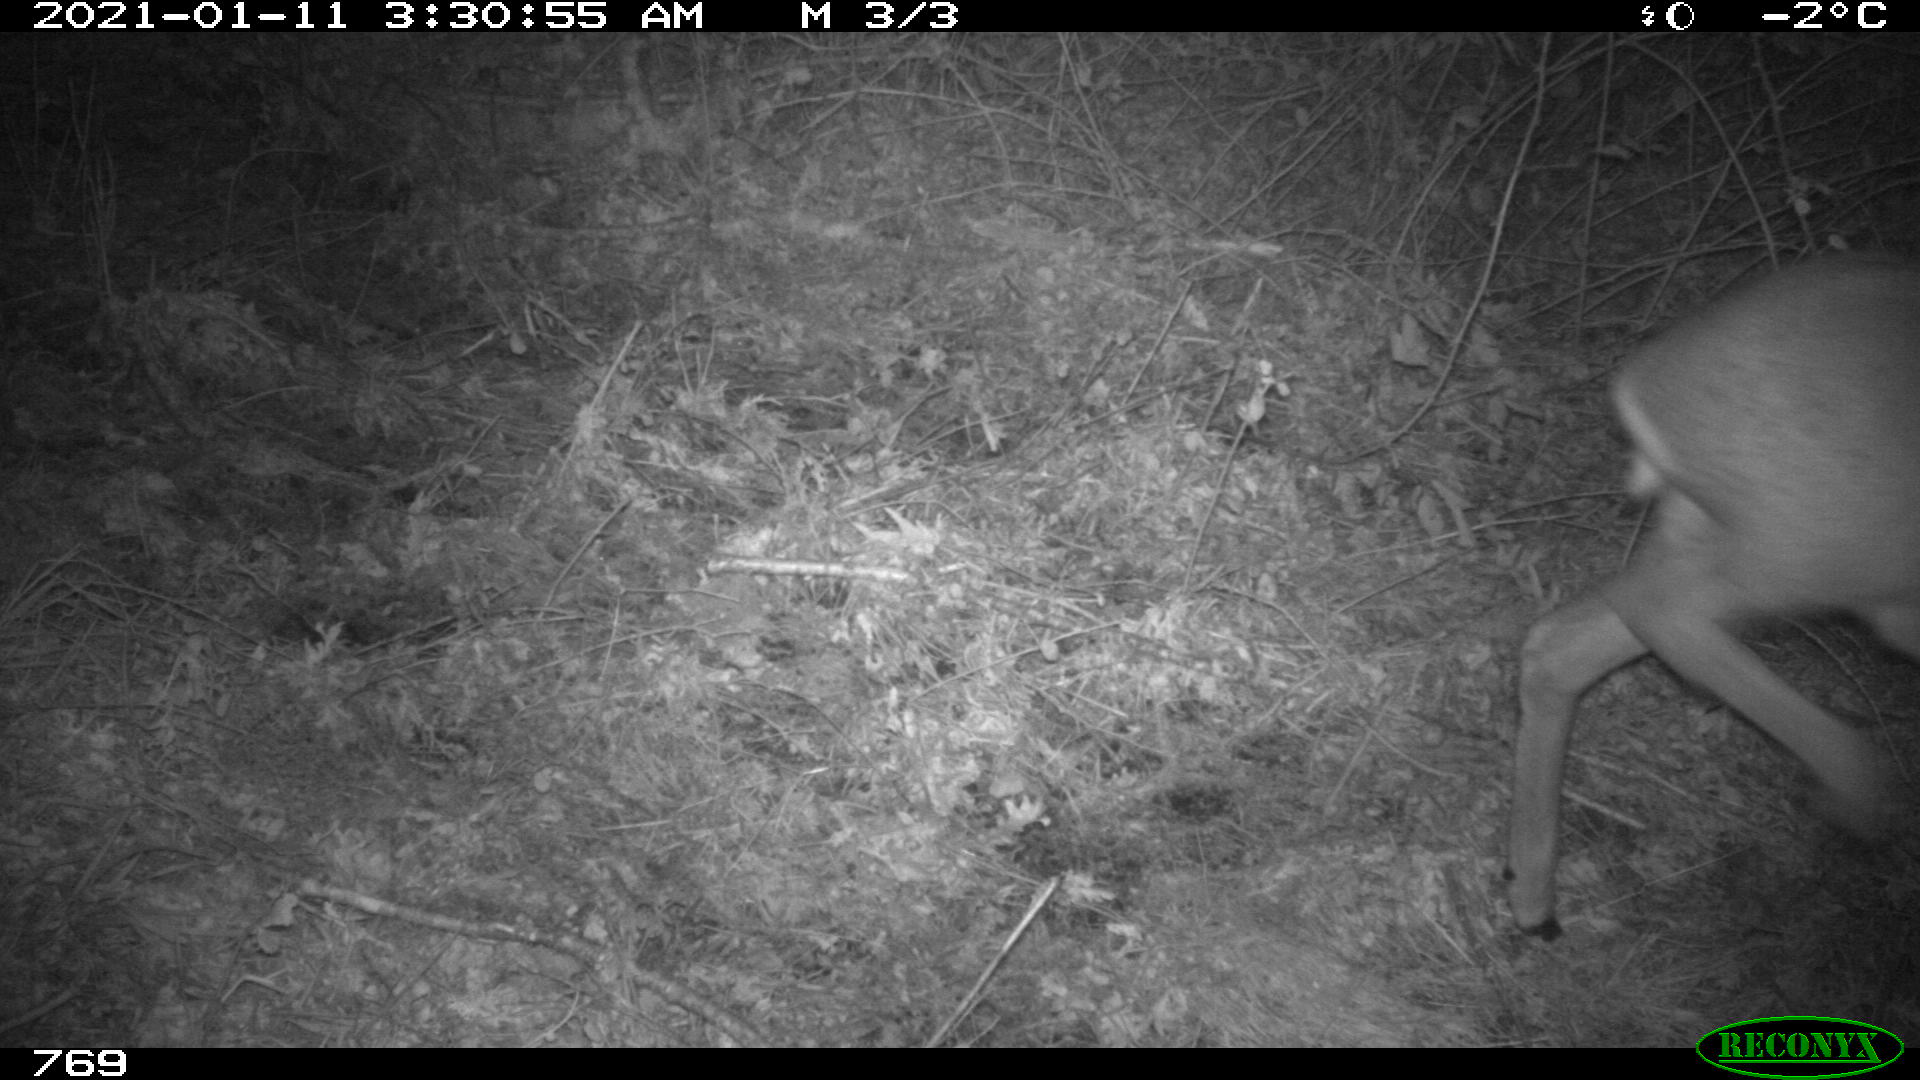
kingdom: Animalia
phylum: Chordata
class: Mammalia
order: Artiodactyla
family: Cervidae
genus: Capreolus
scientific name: Capreolus capreolus
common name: Western roe deer
